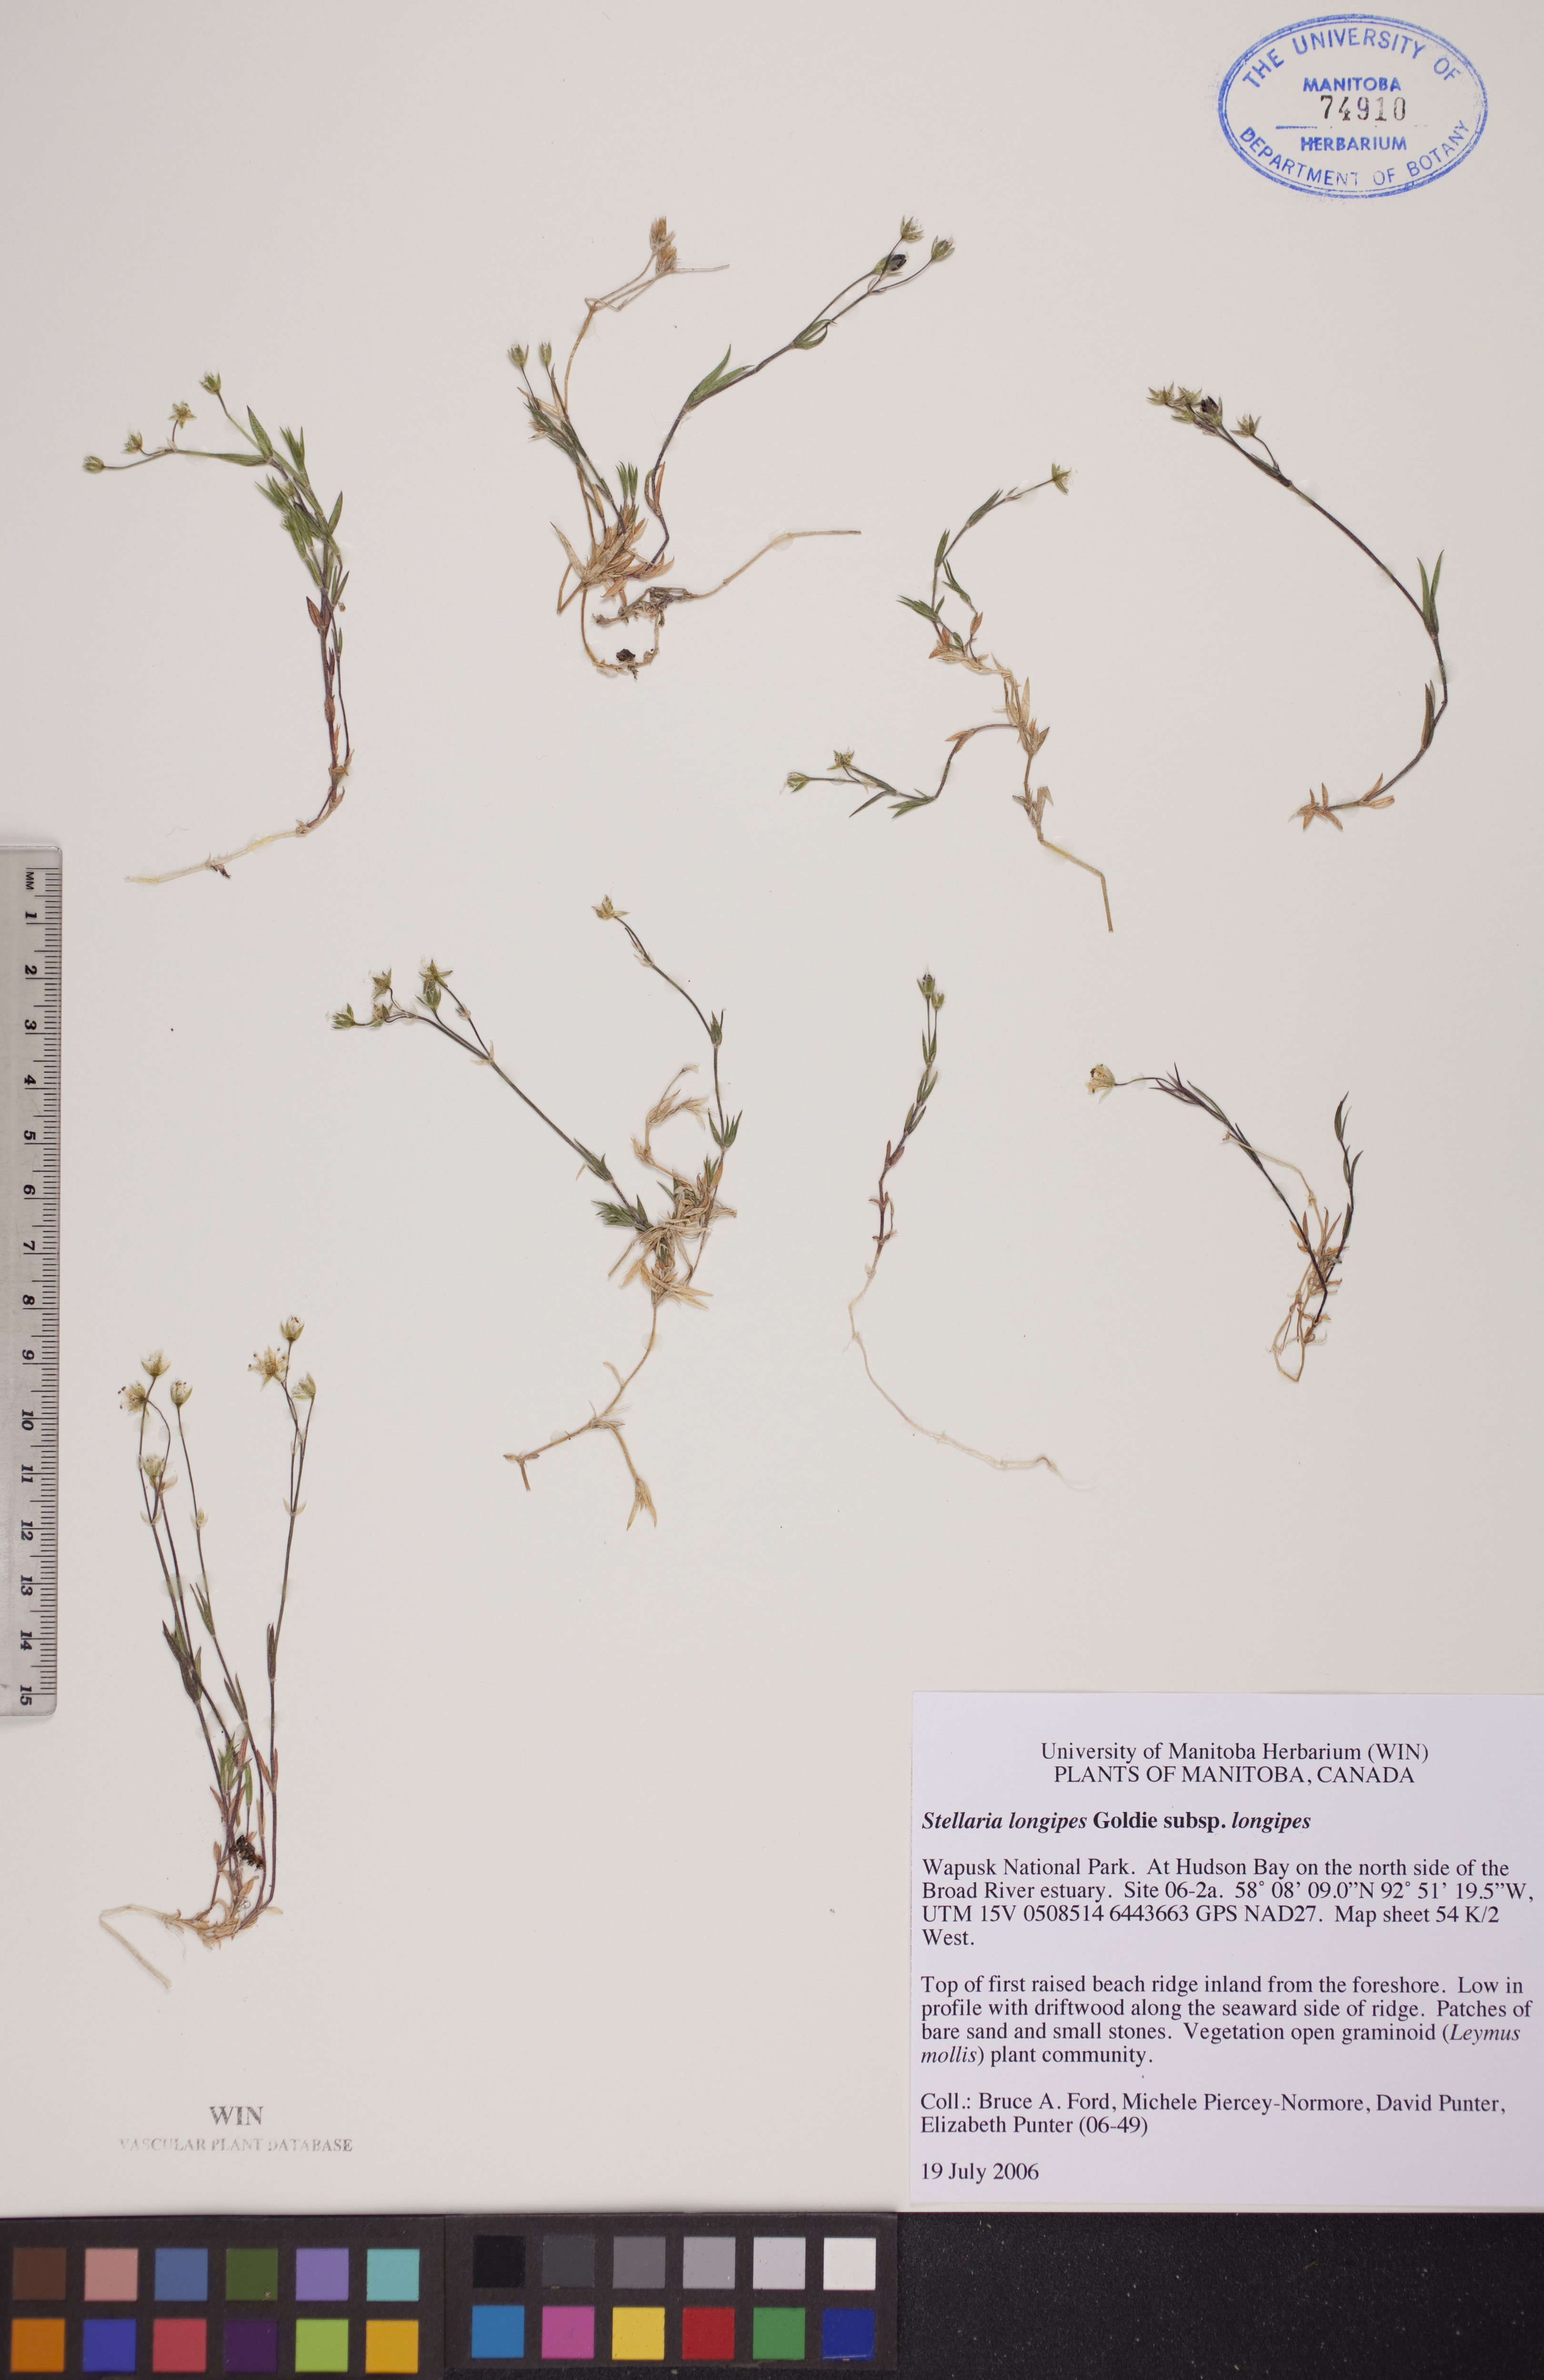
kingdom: Plantae
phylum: Tracheophyta
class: Magnoliopsida
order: Caryophyllales
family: Caryophyllaceae
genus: Stellaria
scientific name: Stellaria longipes
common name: Goldie's starwort
